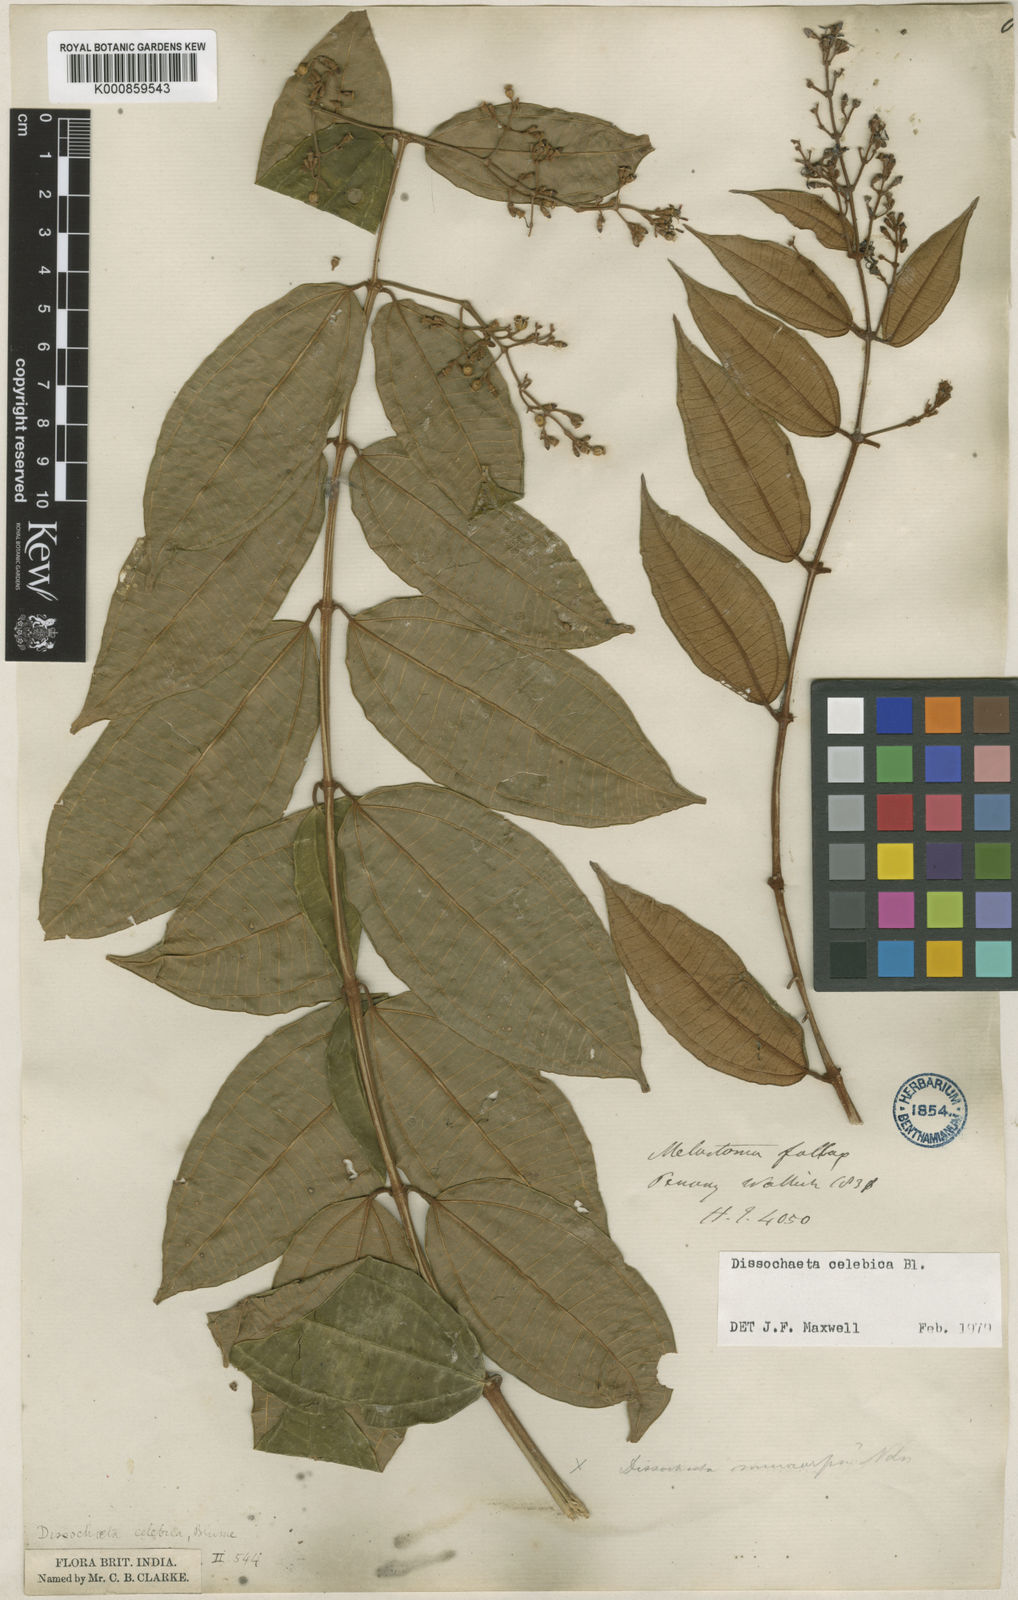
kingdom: Plantae
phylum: Tracheophyta
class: Magnoliopsida
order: Myrtales
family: Melastomataceae
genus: Dissochaeta
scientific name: Dissochaeta celebica
